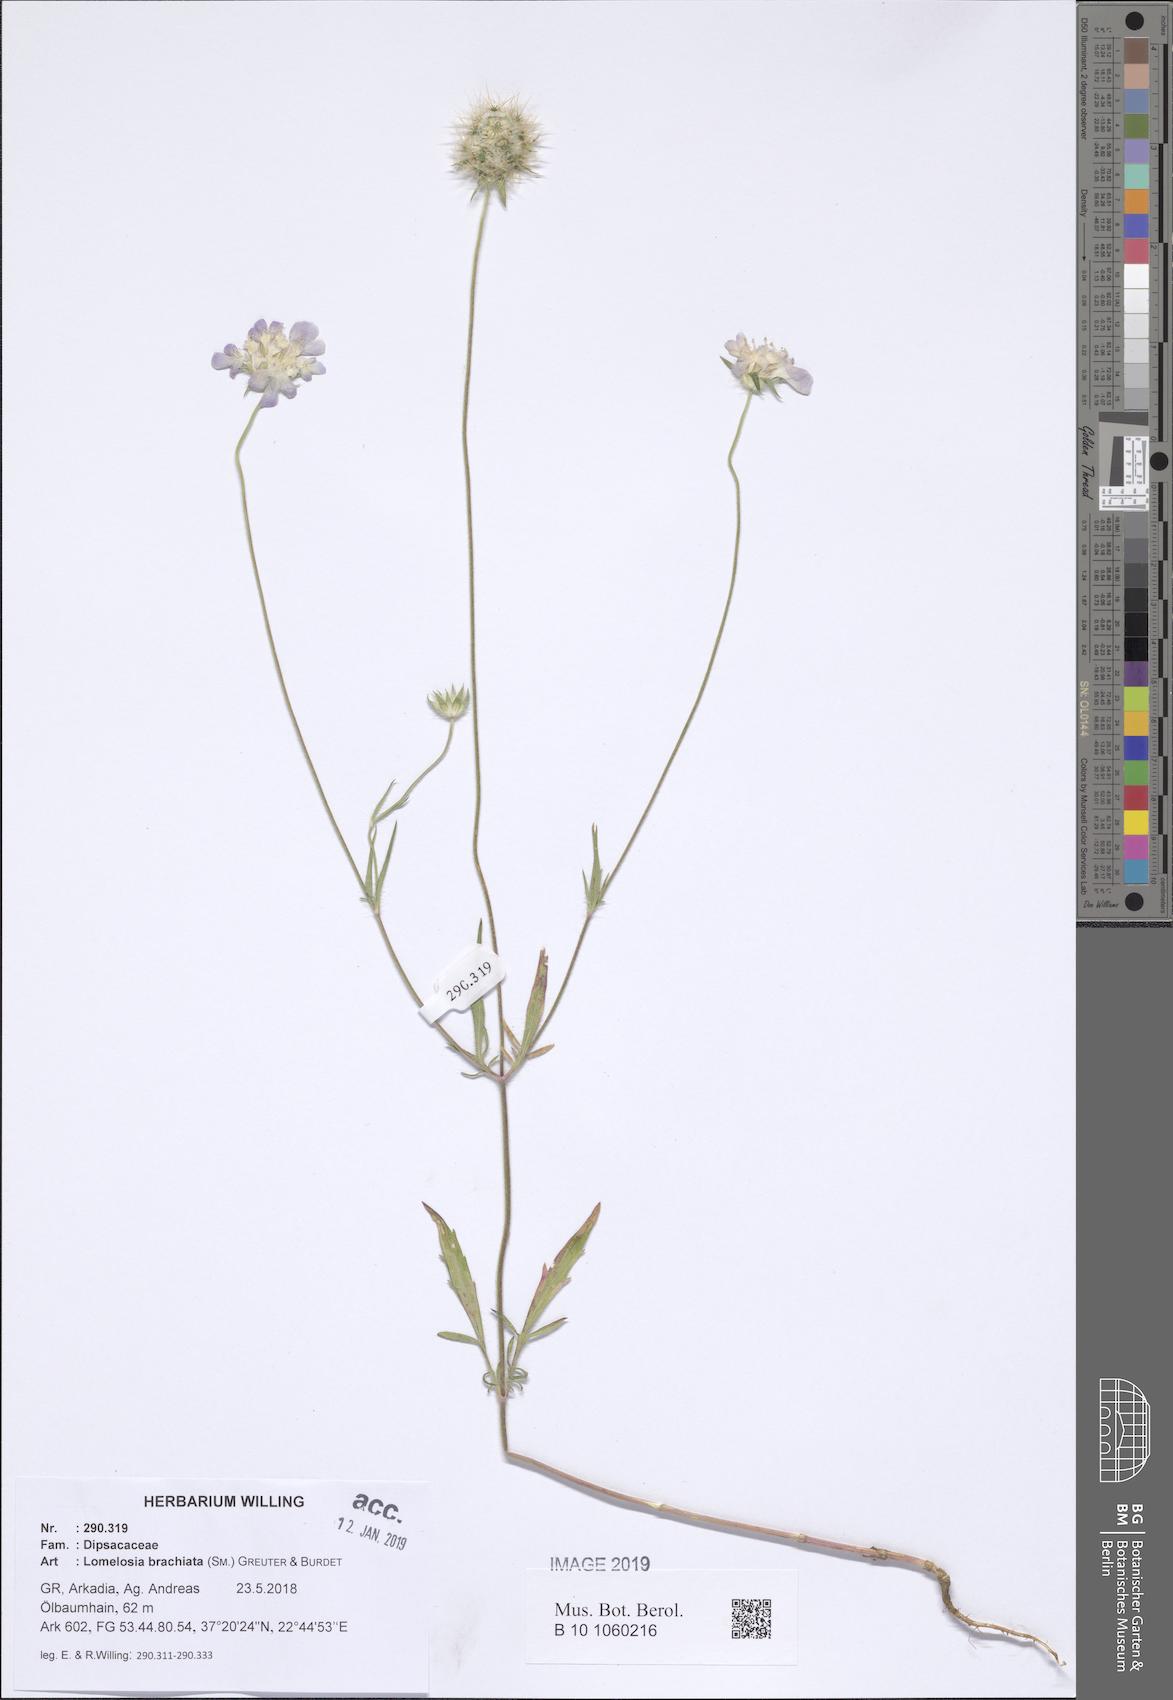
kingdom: Plantae
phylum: Tracheophyta
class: Magnoliopsida
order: Dipsacales
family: Caprifoliaceae
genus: Lomelosia
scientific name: Lomelosia brachiata
